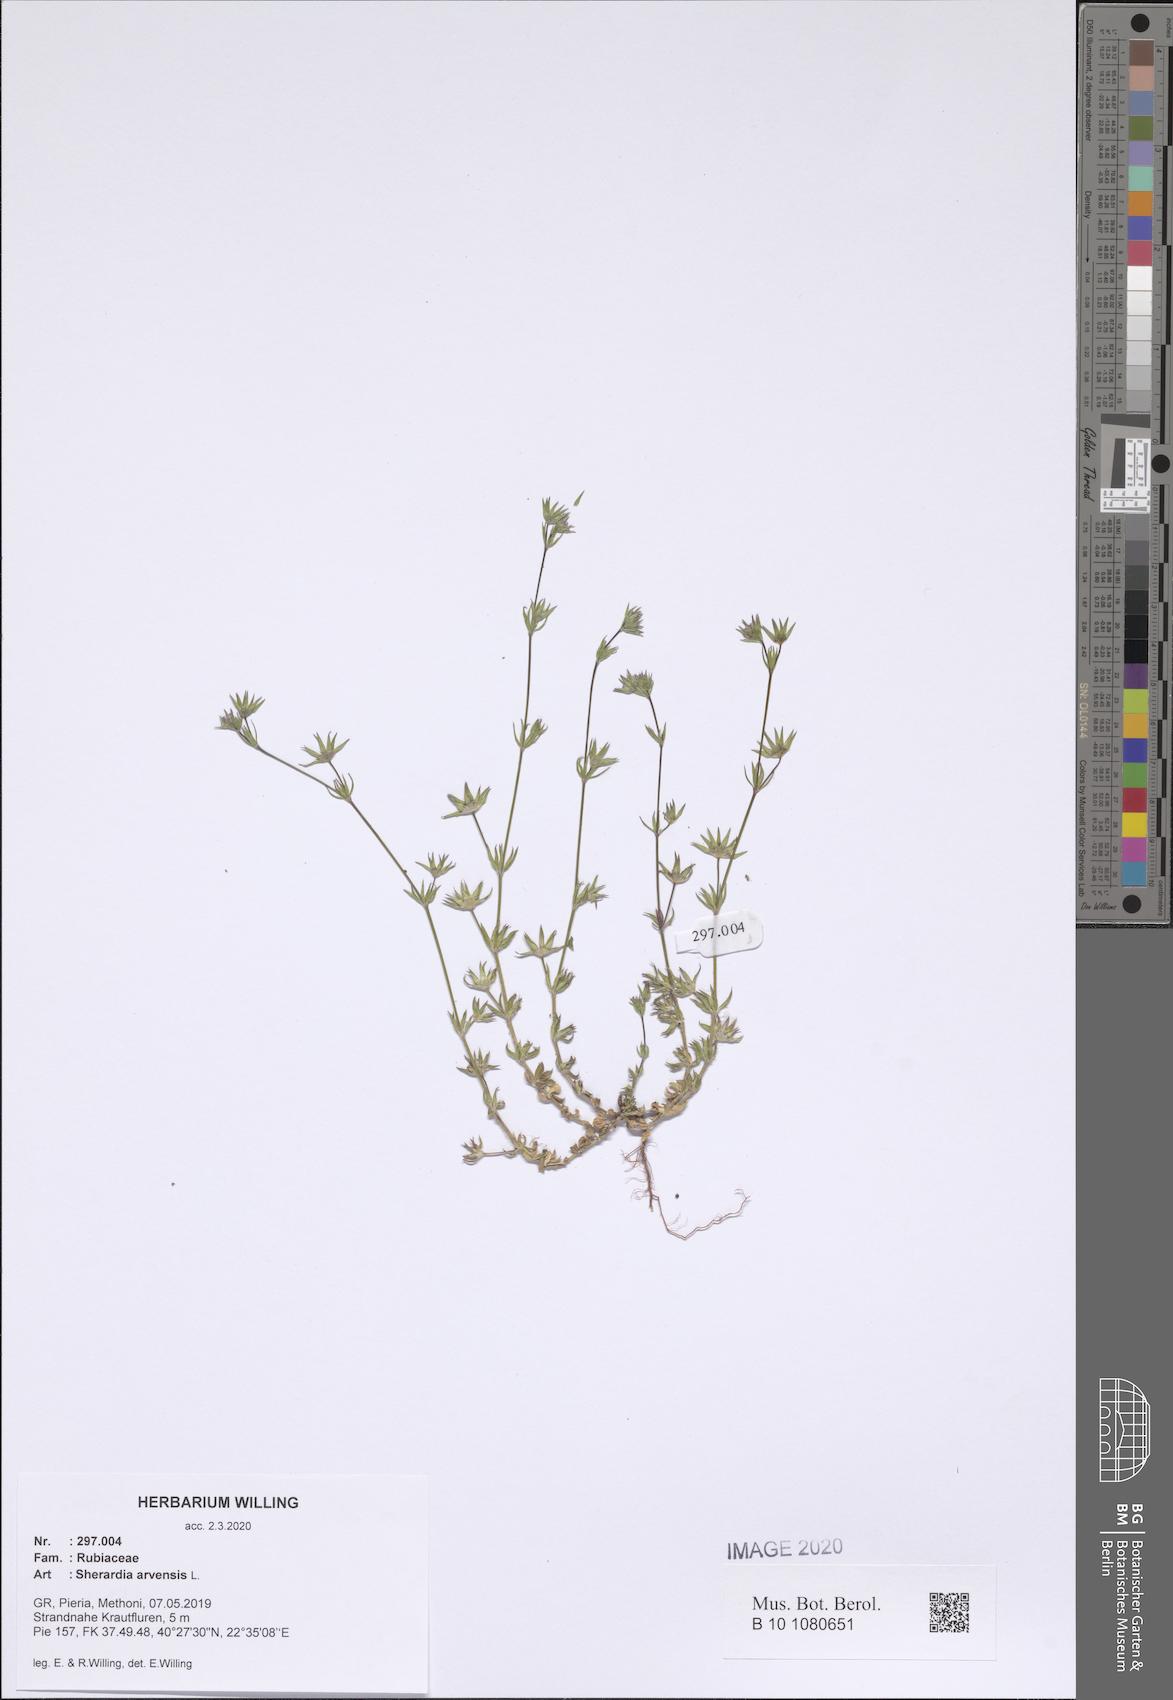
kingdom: Plantae
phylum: Tracheophyta
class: Magnoliopsida
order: Gentianales
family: Rubiaceae
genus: Sherardia
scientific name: Sherardia arvensis
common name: Field madder
